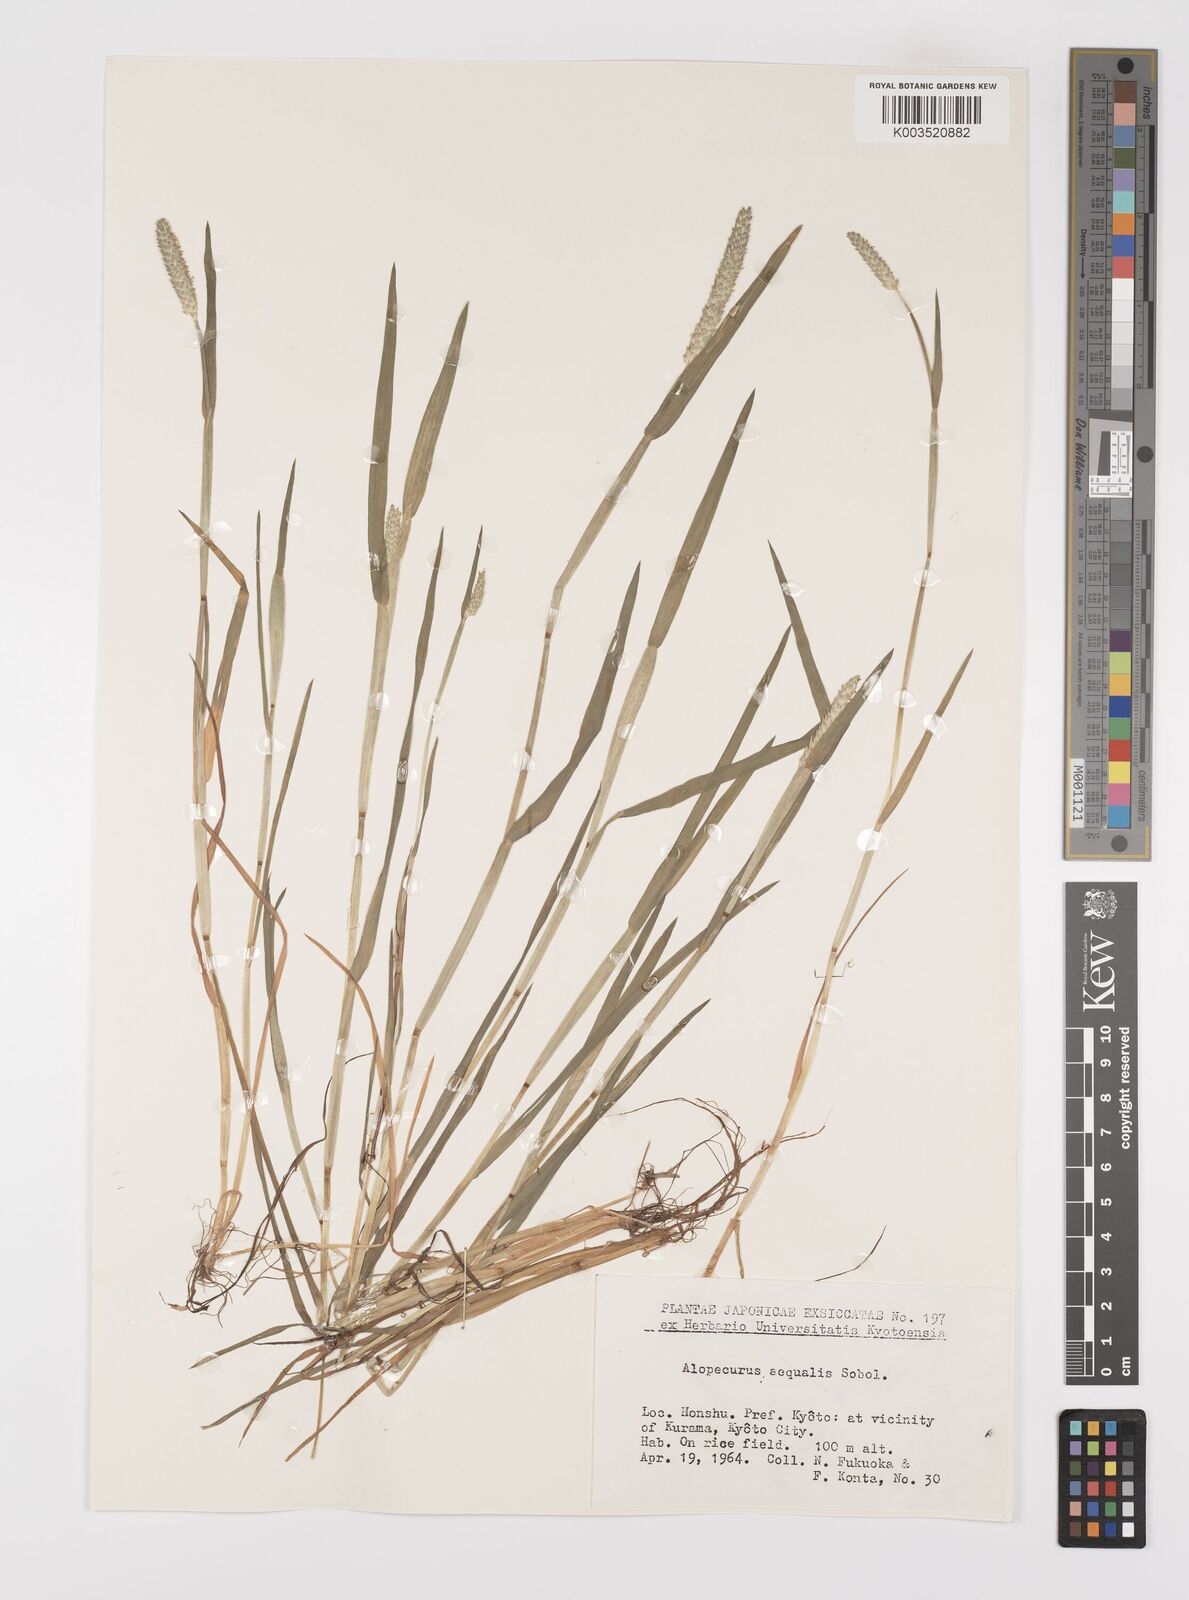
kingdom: Plantae
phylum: Tracheophyta
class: Liliopsida
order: Poales
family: Poaceae
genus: Alopecurus
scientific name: Alopecurus aequalis
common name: Orange foxtail
